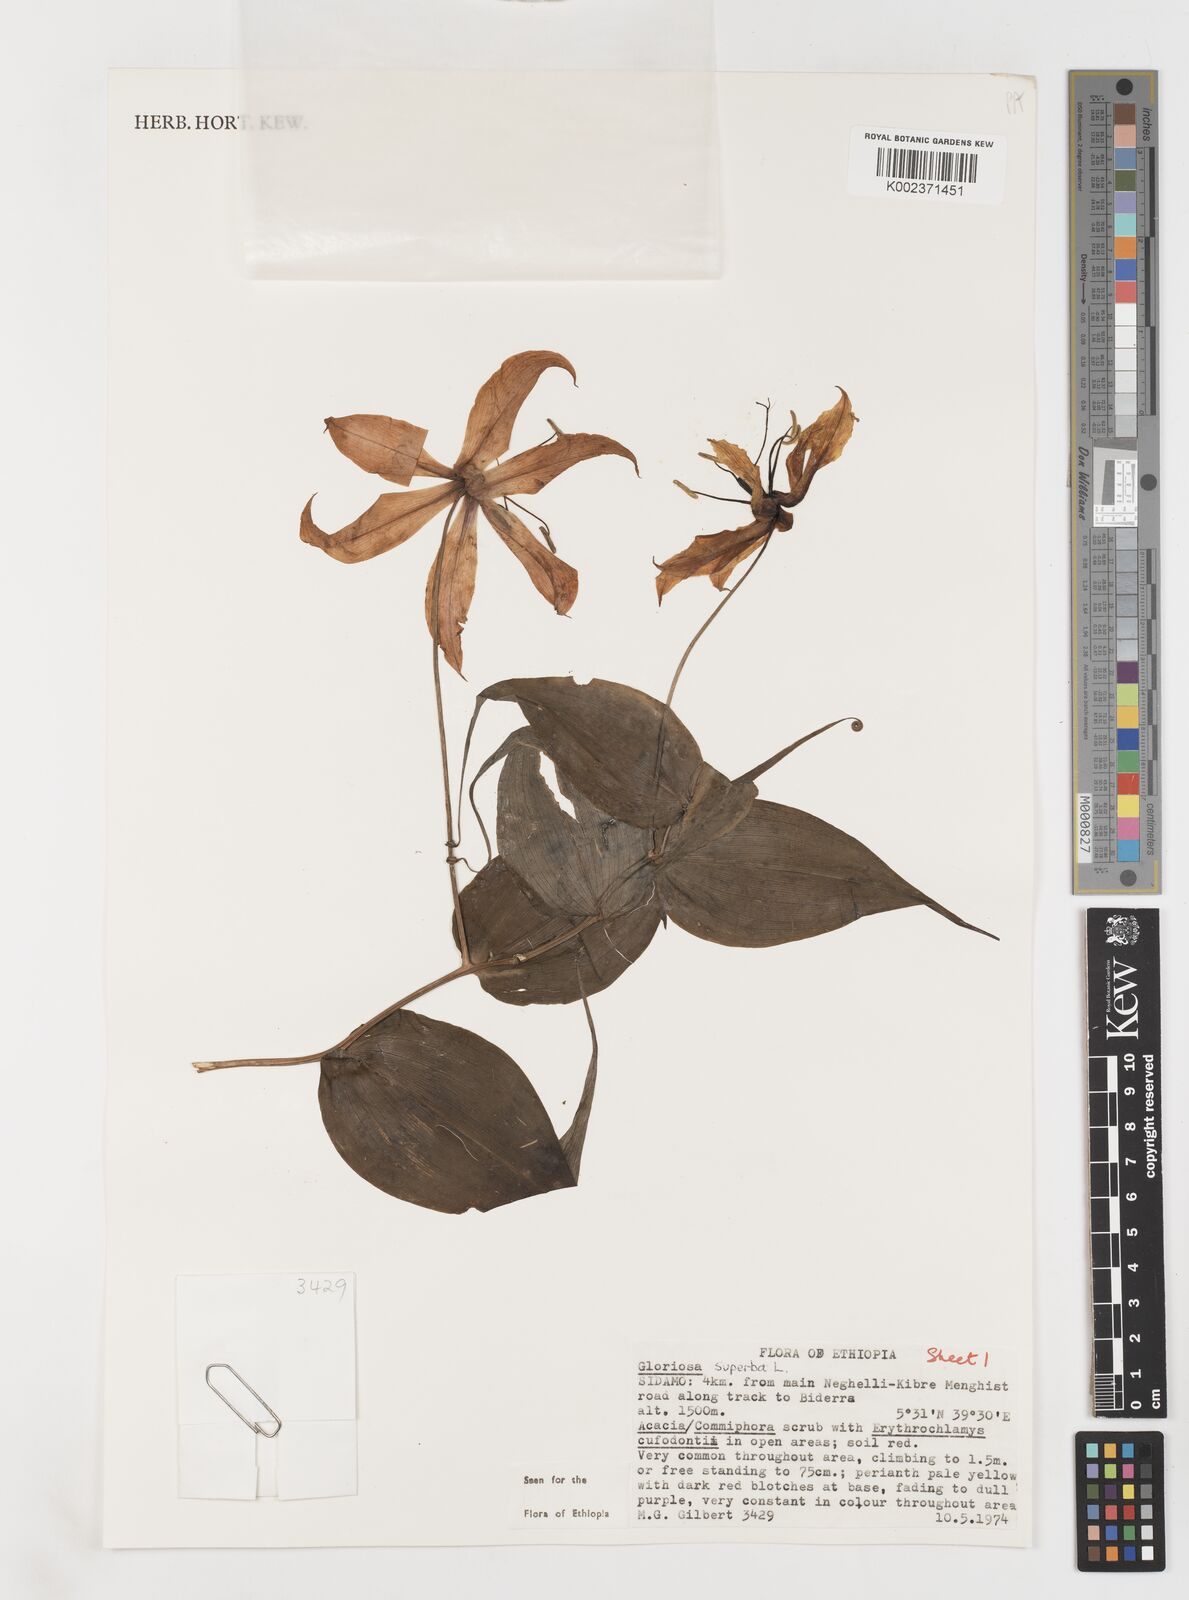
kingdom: Plantae
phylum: Tracheophyta
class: Liliopsida
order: Liliales
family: Colchicaceae
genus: Gloriosa
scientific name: Gloriosa simplex
